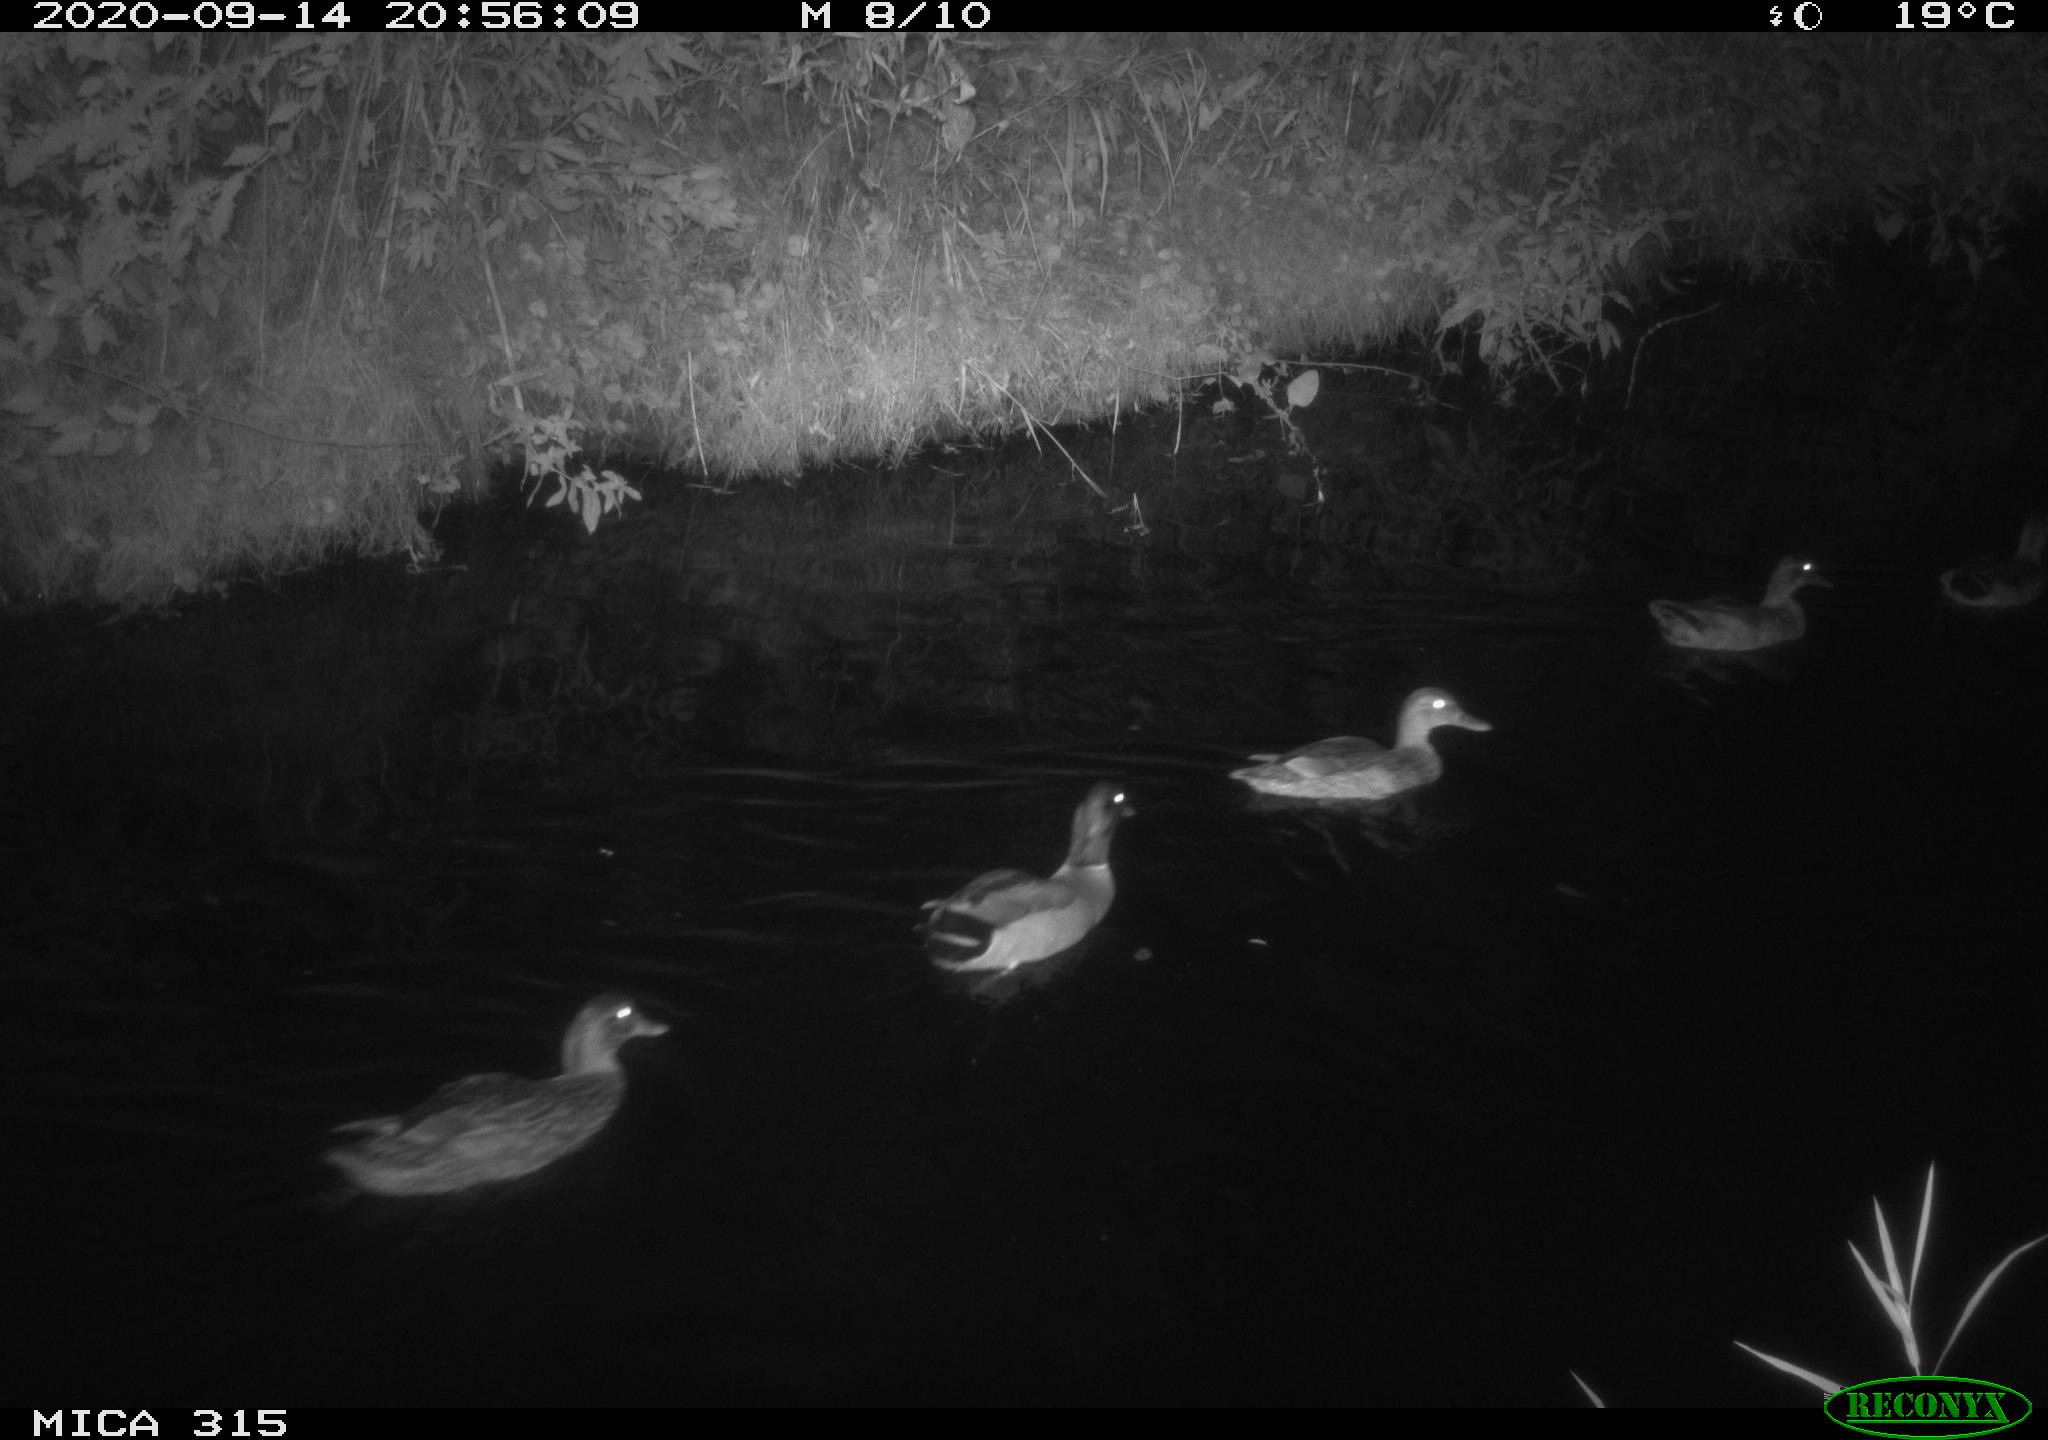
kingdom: Animalia
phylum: Chordata
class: Aves
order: Anseriformes
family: Anatidae
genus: Anas
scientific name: Anas platyrhynchos
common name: Mallard
